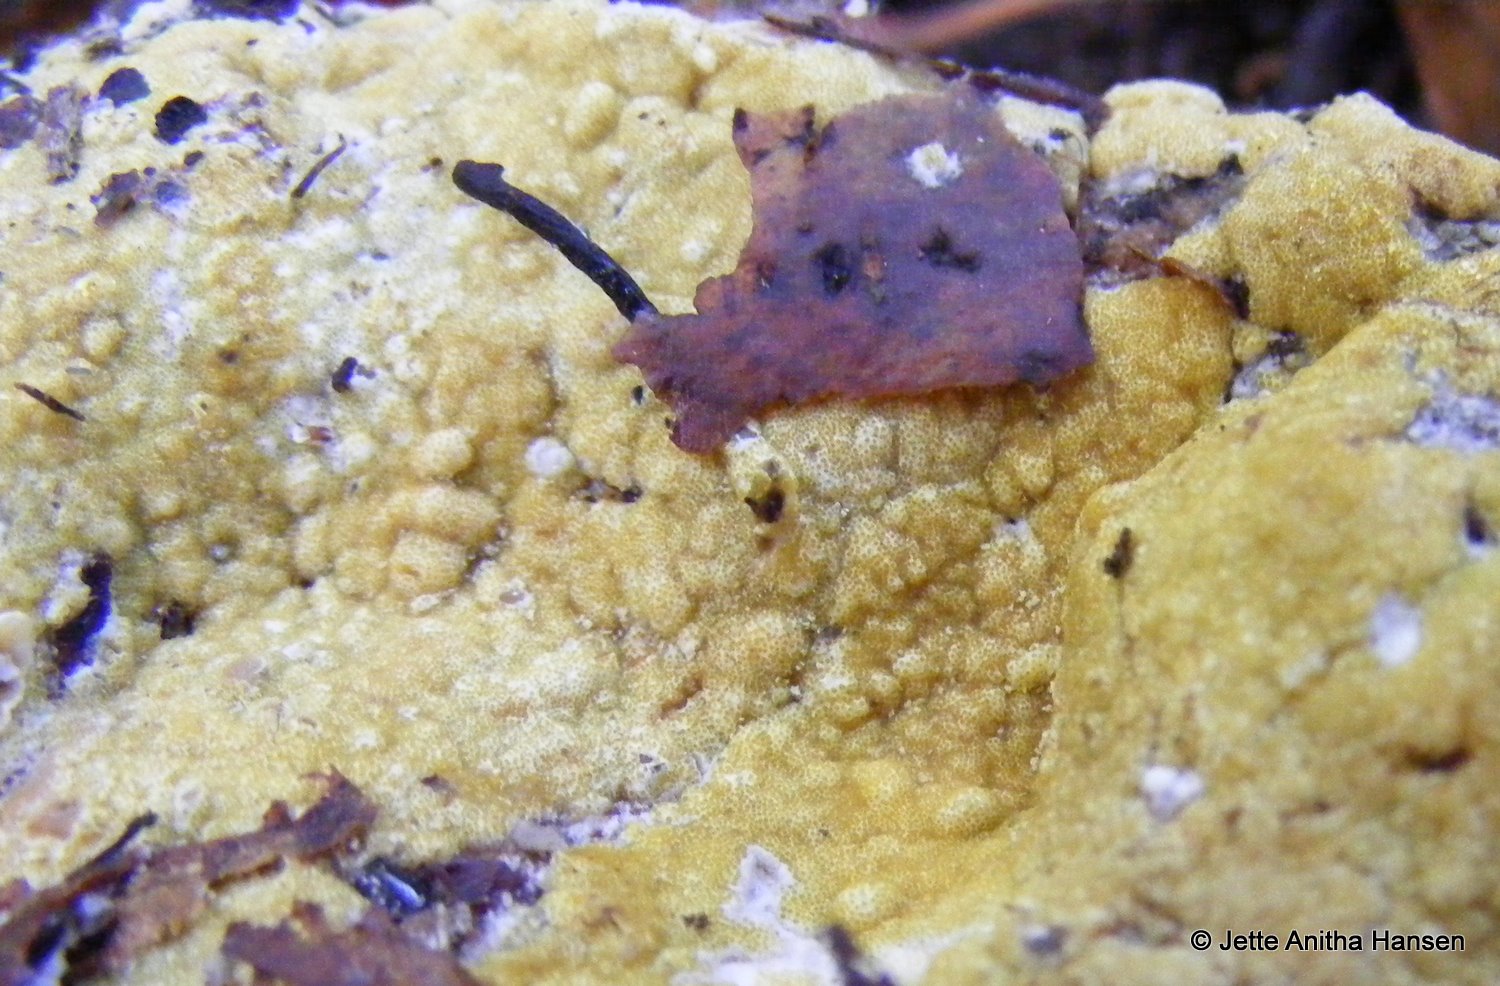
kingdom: Fungi
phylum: Ascomycota
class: Sordariomycetes
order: Hypocreales
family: Hypocreaceae
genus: Trichoderma
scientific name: Trichoderma pulvinatum
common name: snyltende kødkerne
